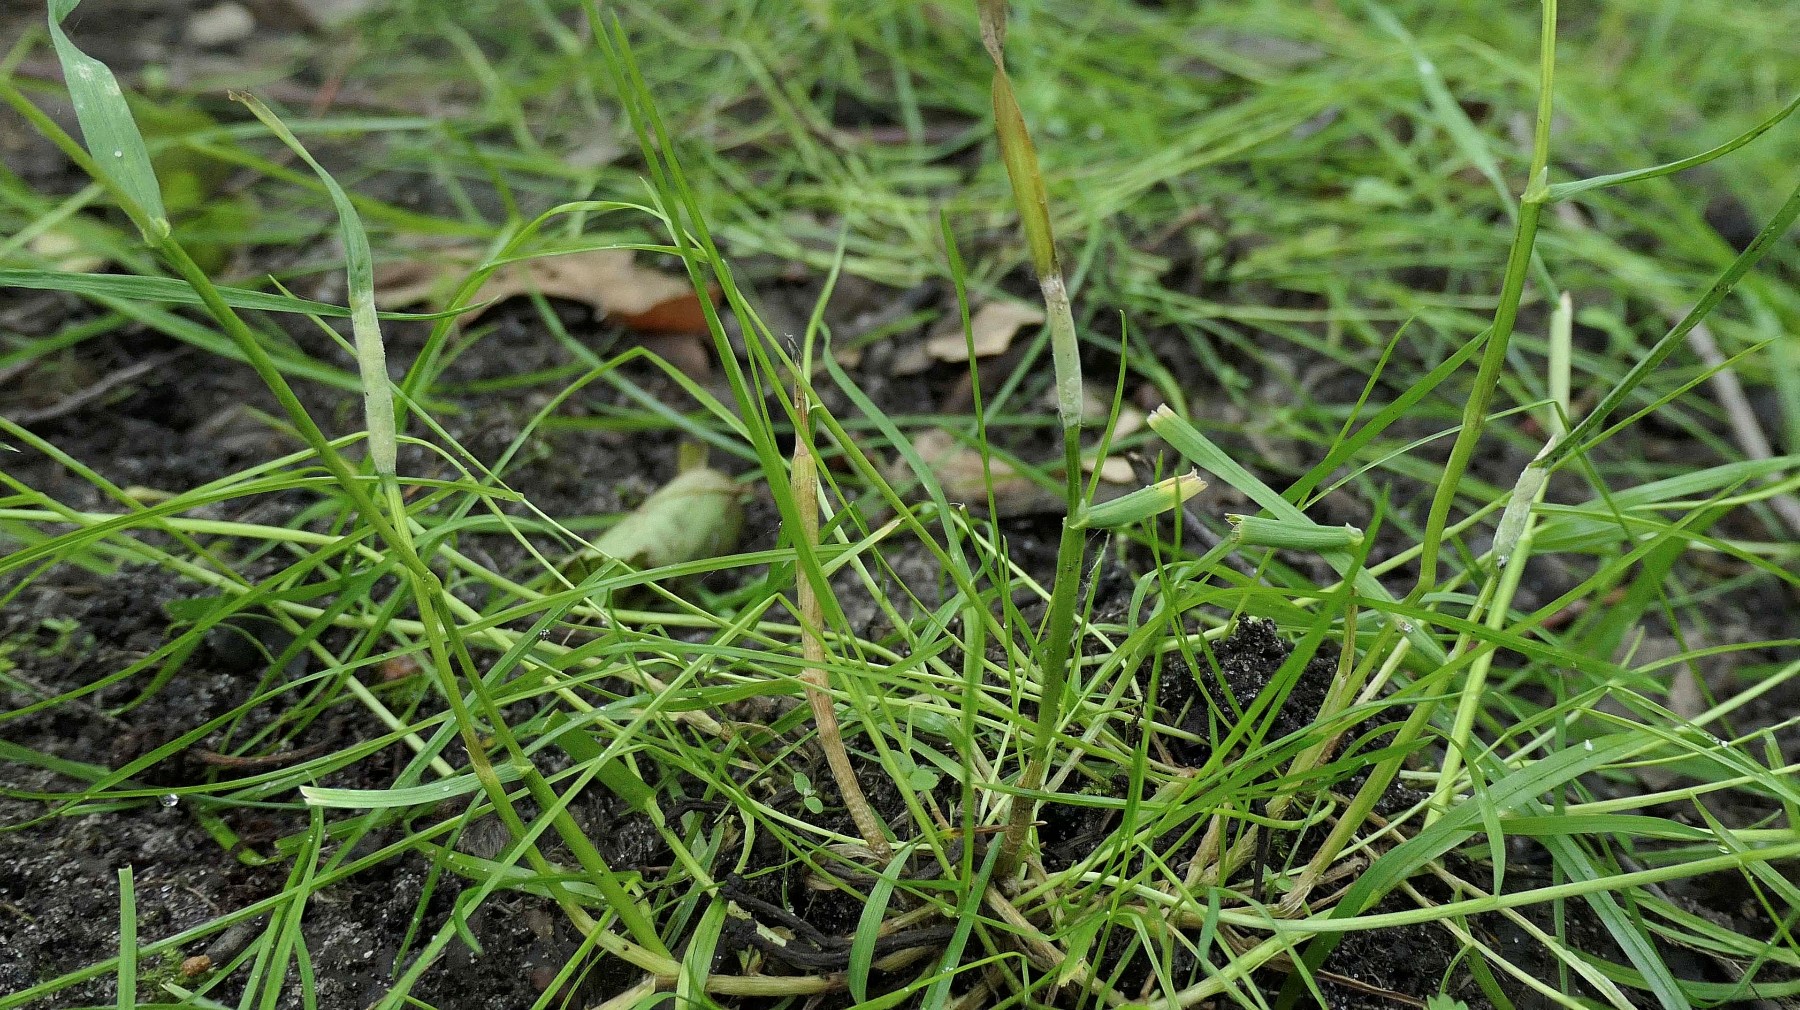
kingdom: Fungi
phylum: Ascomycota
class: Sordariomycetes
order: Hypocreales
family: Clavicipitaceae
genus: Epichloe
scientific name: Epichloe typhina
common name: almindelig kernerør
